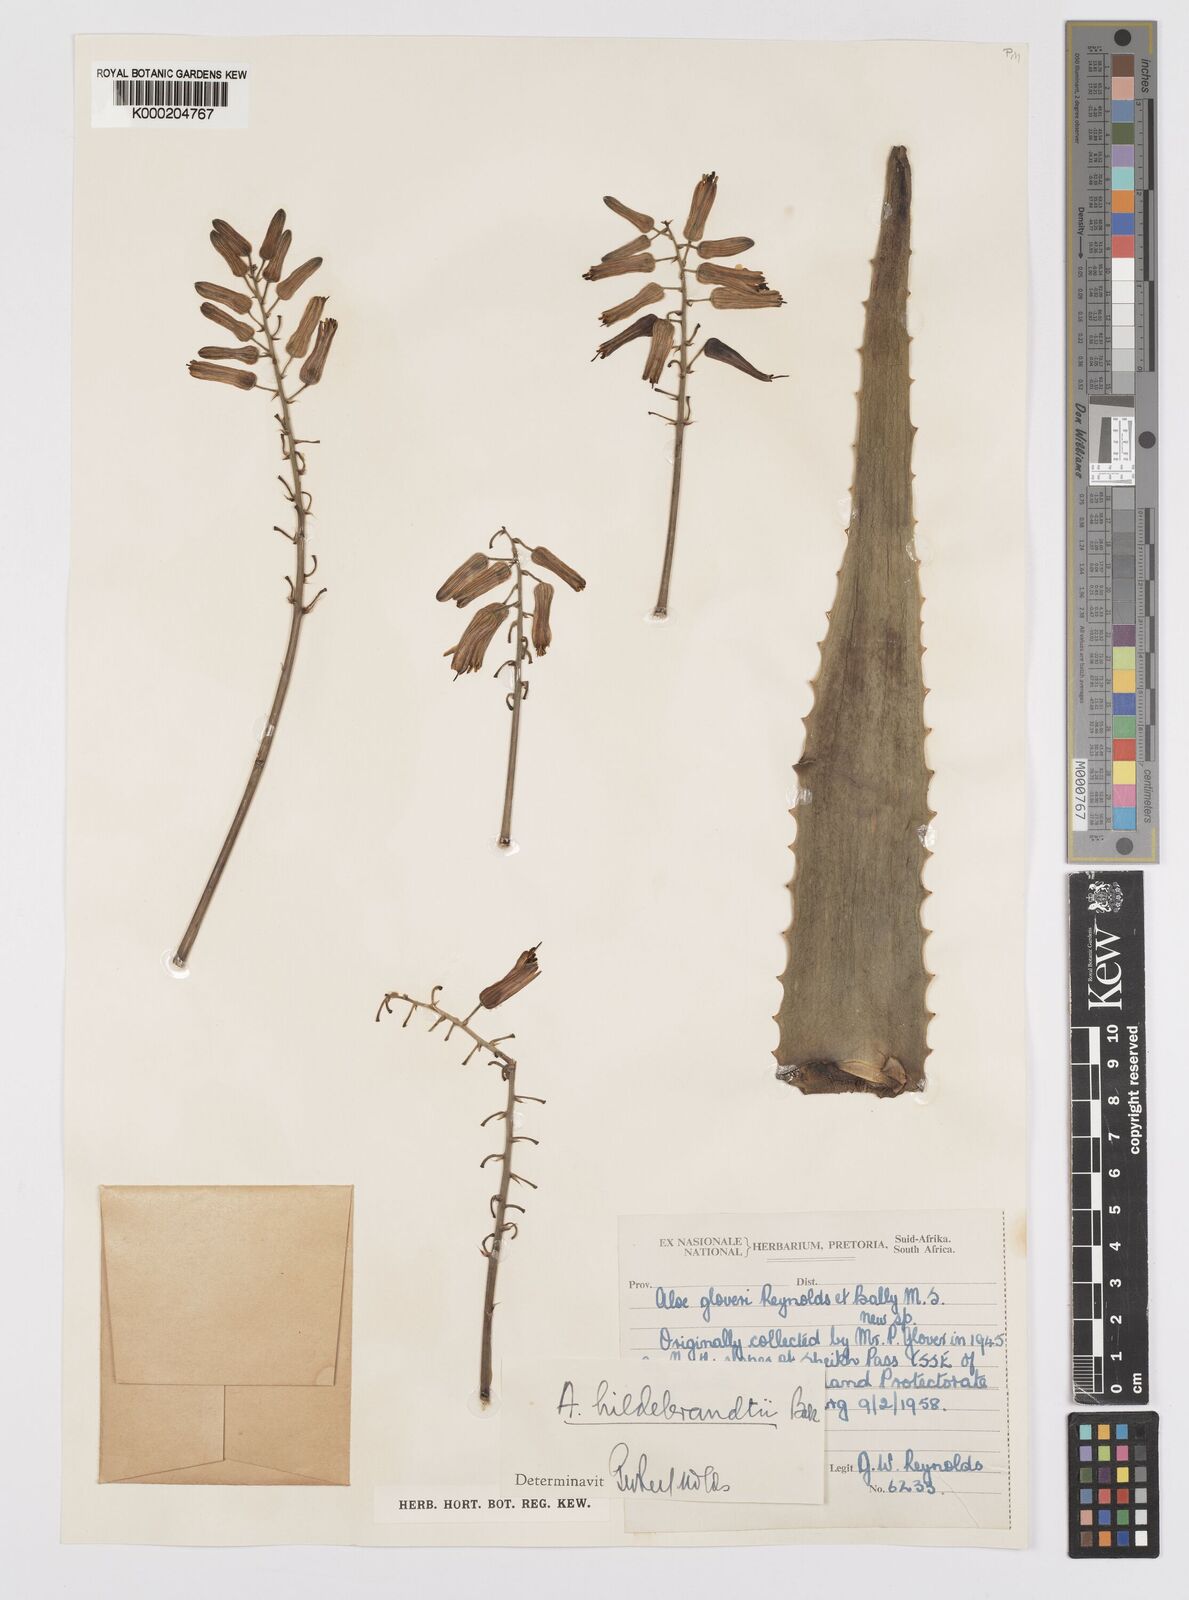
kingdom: Plantae
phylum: Tracheophyta
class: Liliopsida
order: Asparagales
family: Asphodelaceae
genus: Aloe
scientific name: Aloe hildebrandtii
